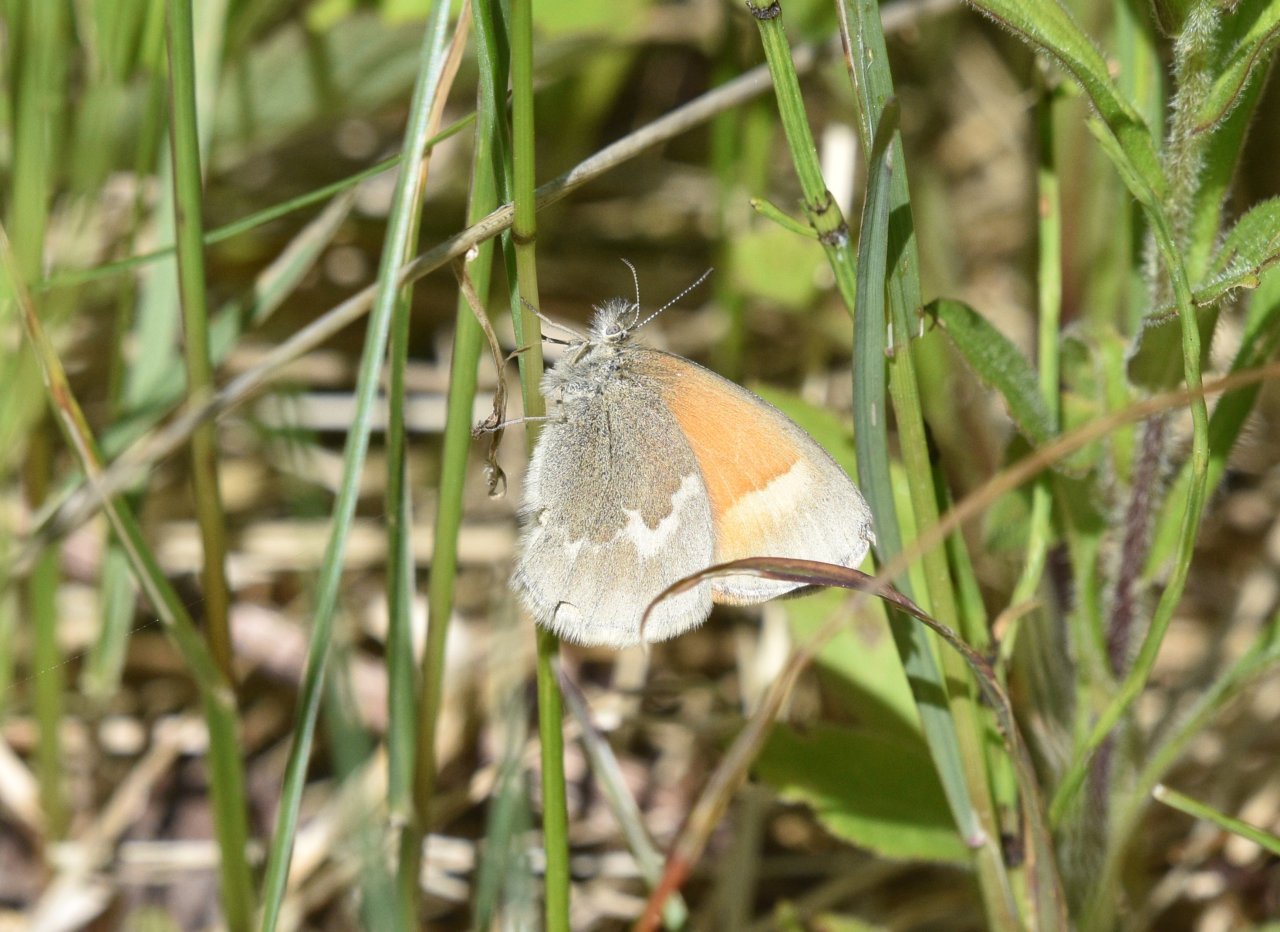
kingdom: Animalia
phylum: Arthropoda
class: Insecta
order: Lepidoptera
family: Nymphalidae
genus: Coenonympha
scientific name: Coenonympha tullia
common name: Large Heath
